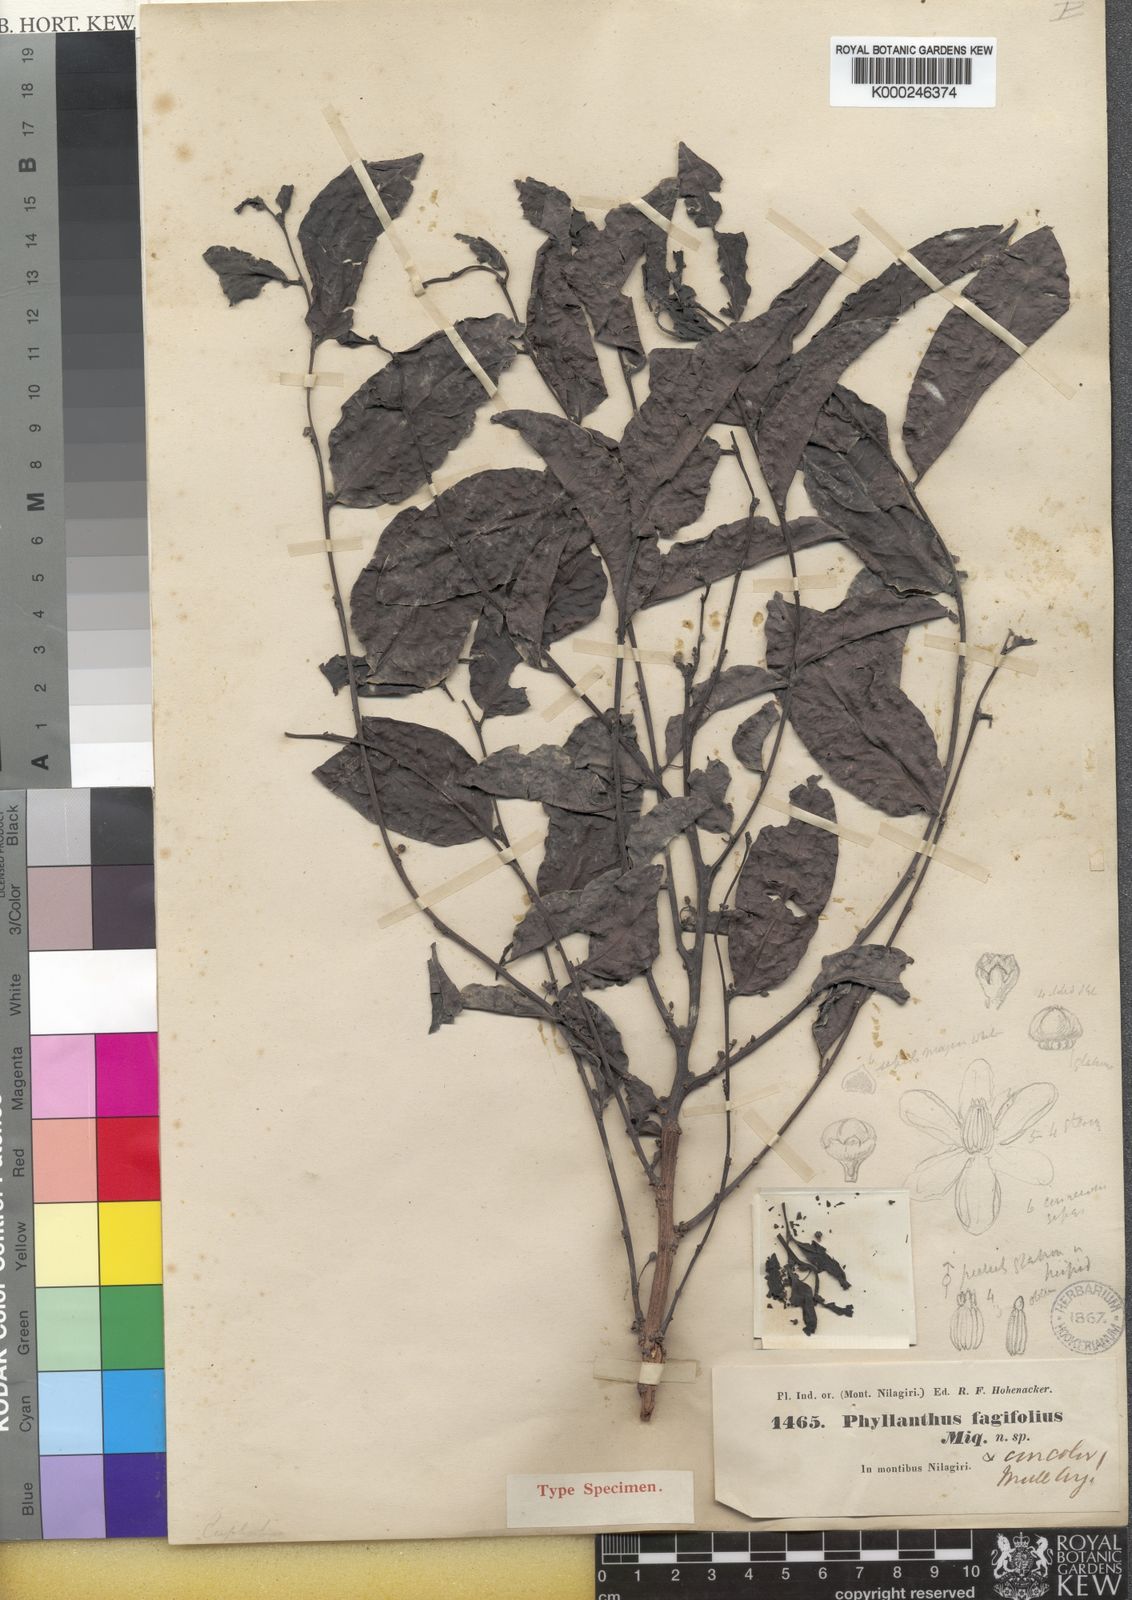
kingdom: Plantae
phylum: Tracheophyta
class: Magnoliopsida
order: Malpighiales
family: Phyllanthaceae
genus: Glochidion
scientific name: Glochidion hohenackeri
